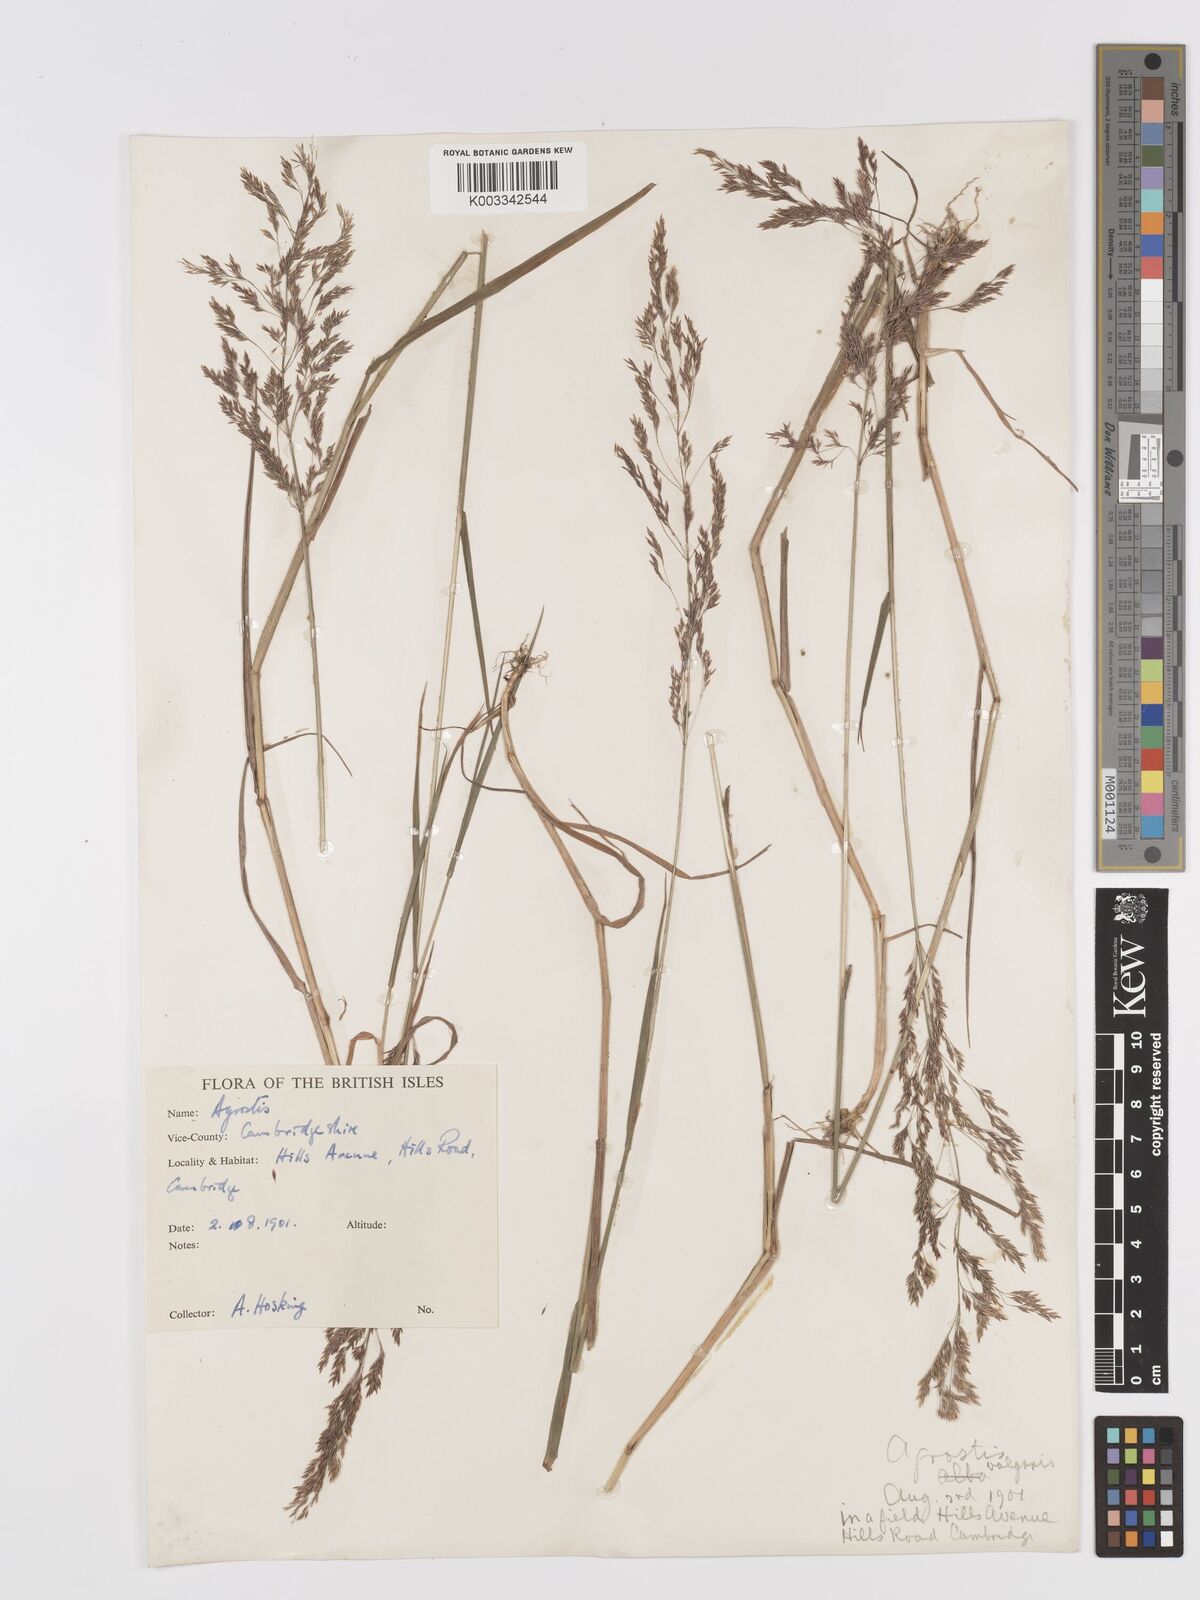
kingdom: Plantae
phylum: Tracheophyta
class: Liliopsida
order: Poales
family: Poaceae
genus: Agrostis
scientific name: Agrostis
